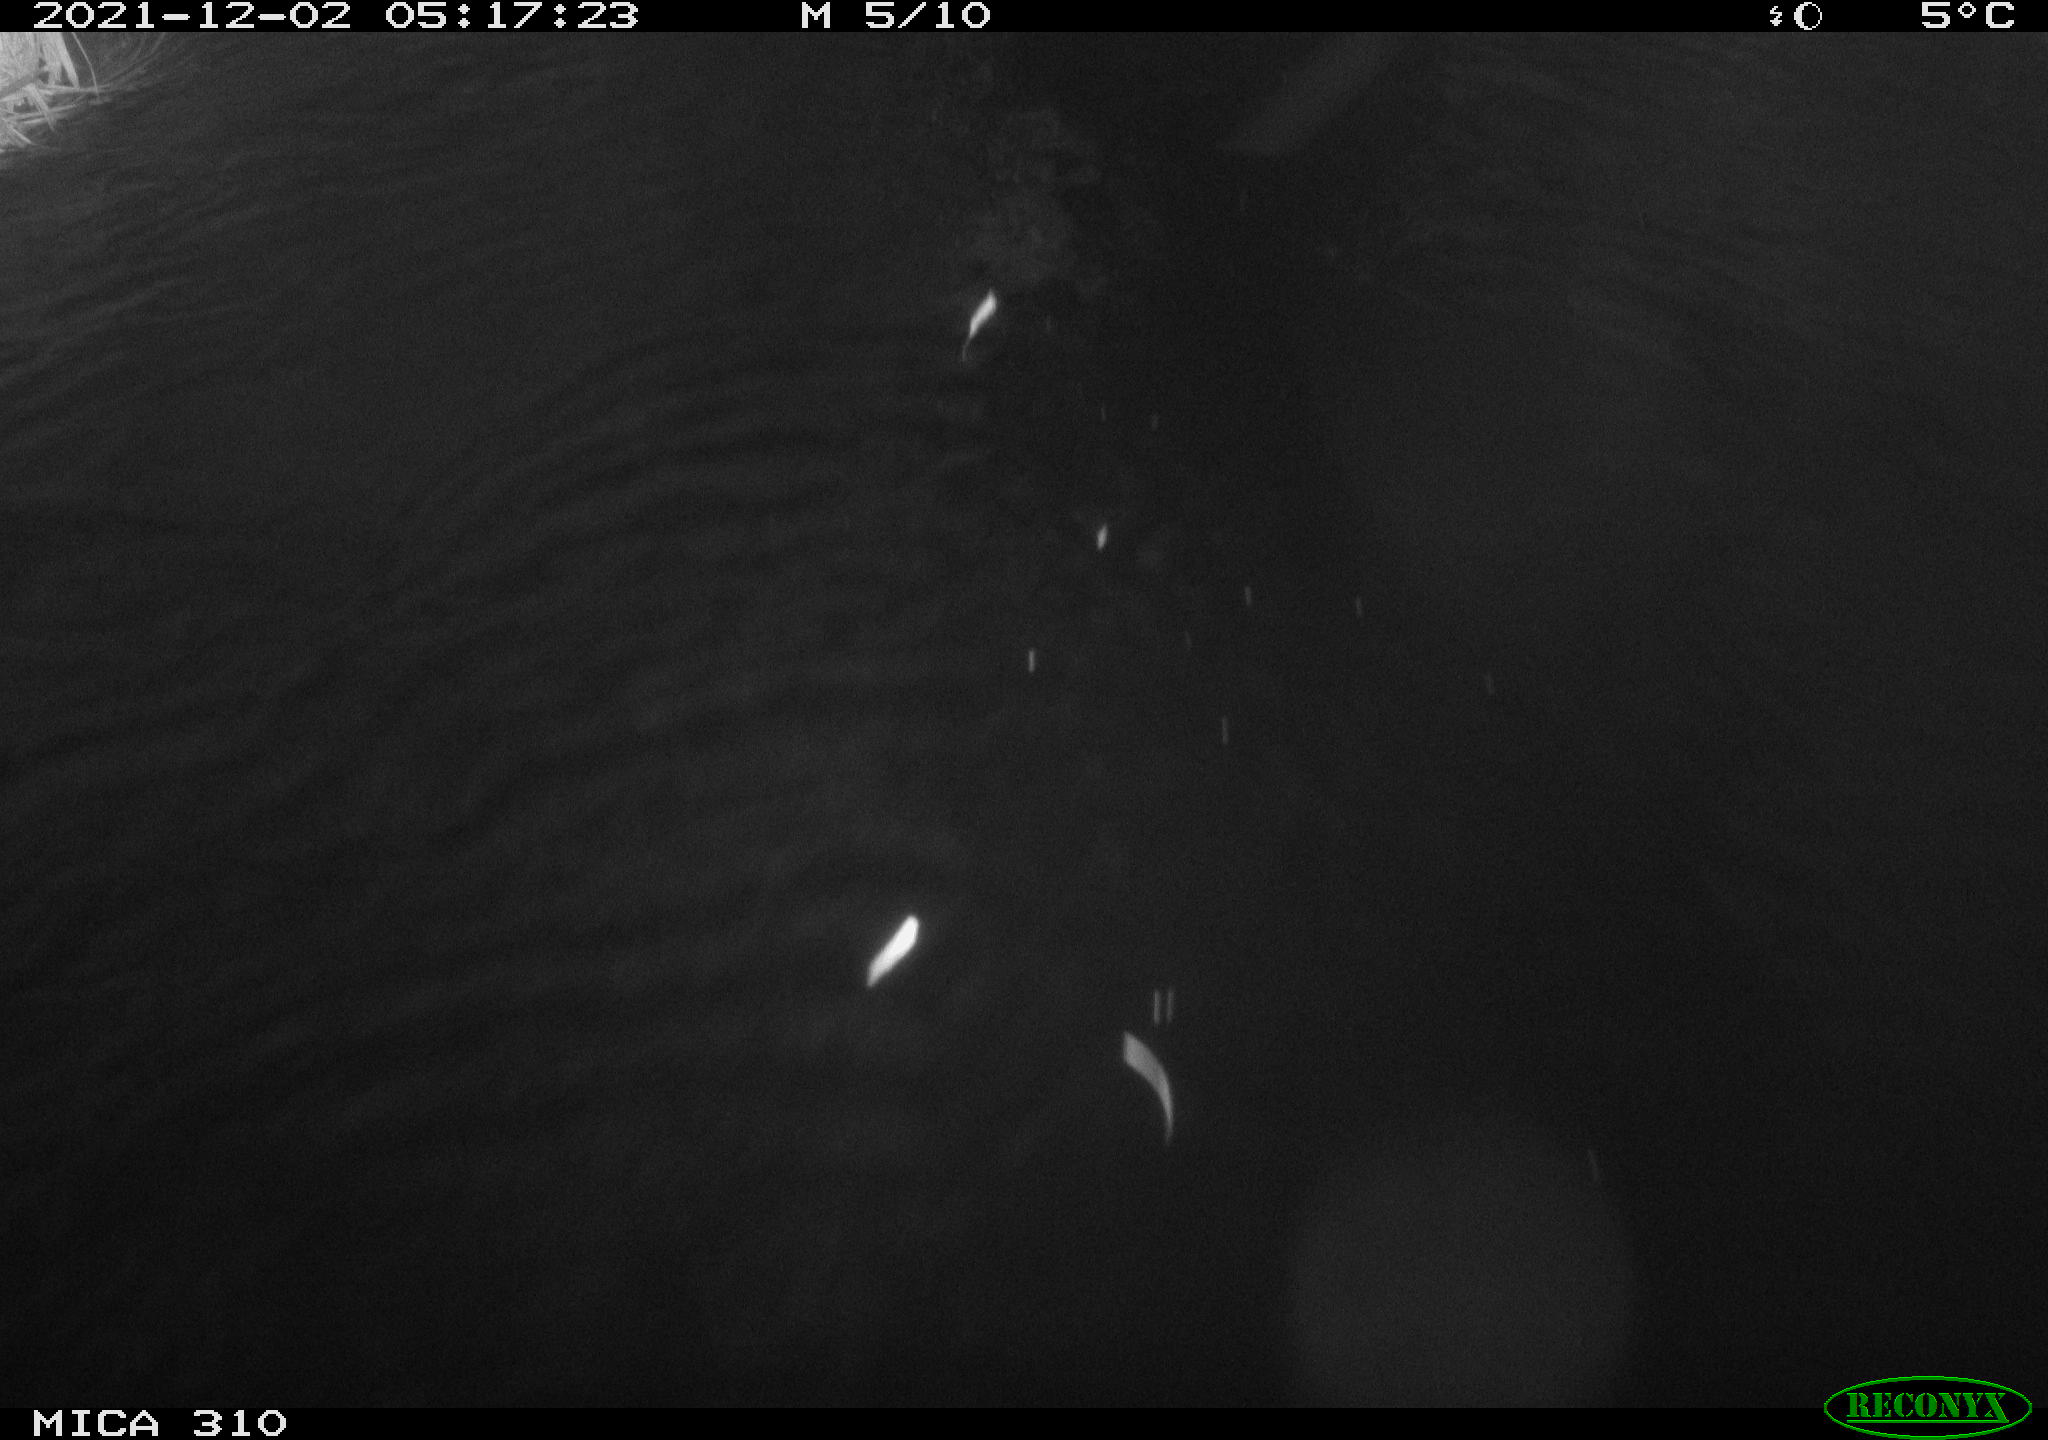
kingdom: Animalia
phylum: Chordata
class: Mammalia
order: Rodentia
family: Muridae
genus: Rattus
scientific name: Rattus norvegicus
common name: Brown rat
